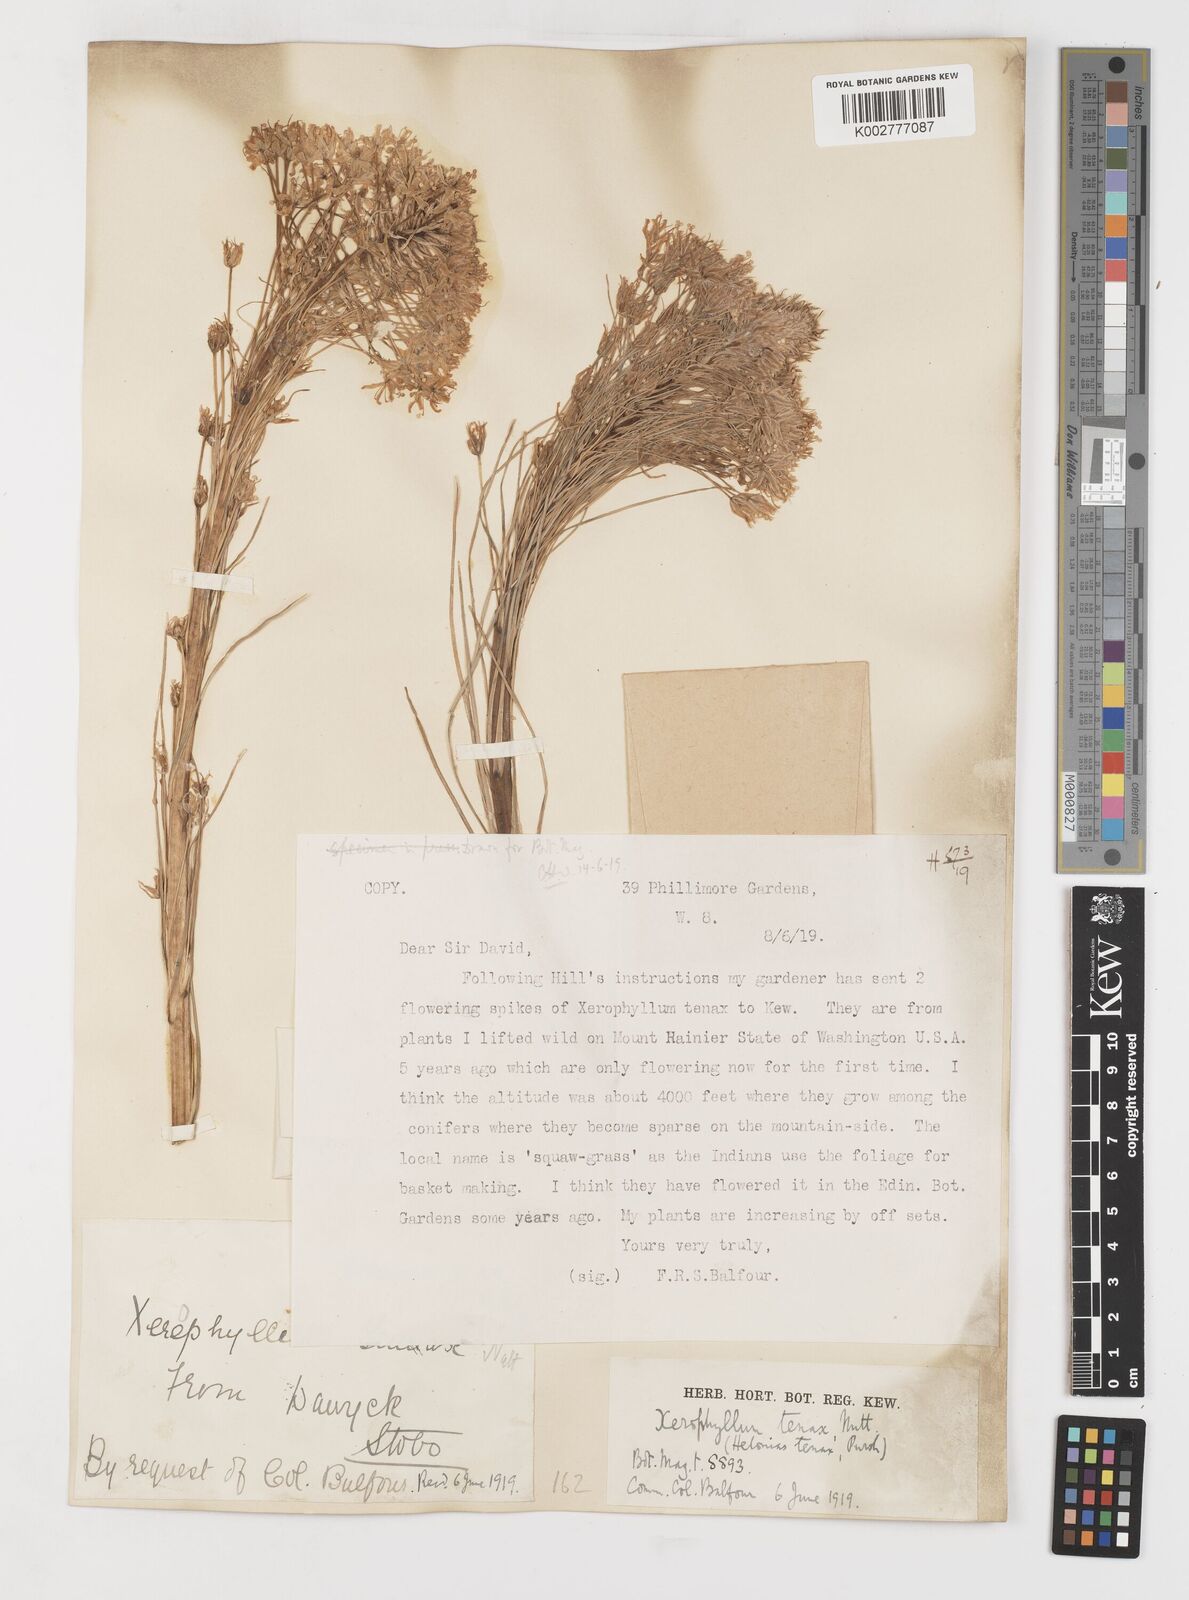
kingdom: Plantae
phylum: Tracheophyta
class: Liliopsida
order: Liliales
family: Melanthiaceae
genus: Xerophyllum
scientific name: Xerophyllum tenax
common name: Bear-grass
